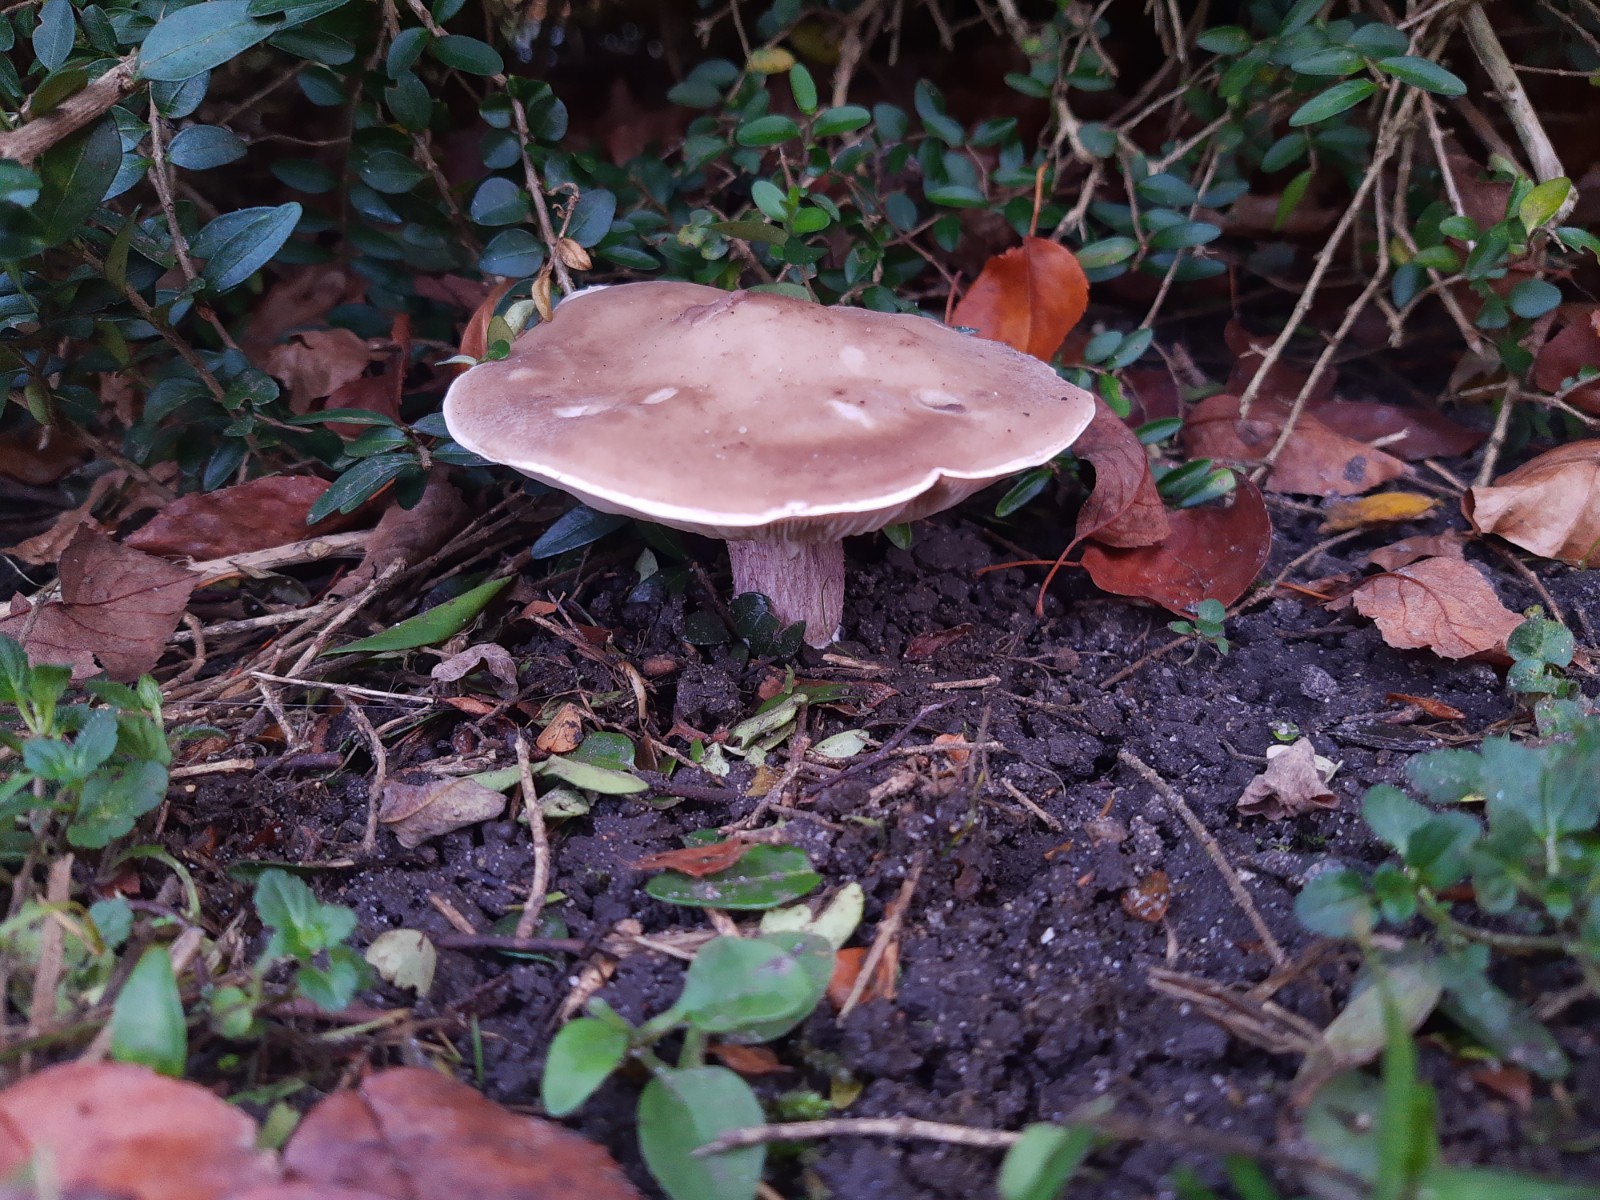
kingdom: Fungi
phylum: Basidiomycota
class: Agaricomycetes
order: Agaricales
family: Tricholomataceae
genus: Lepista
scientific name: Lepista personata
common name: bleg hekseringshat
